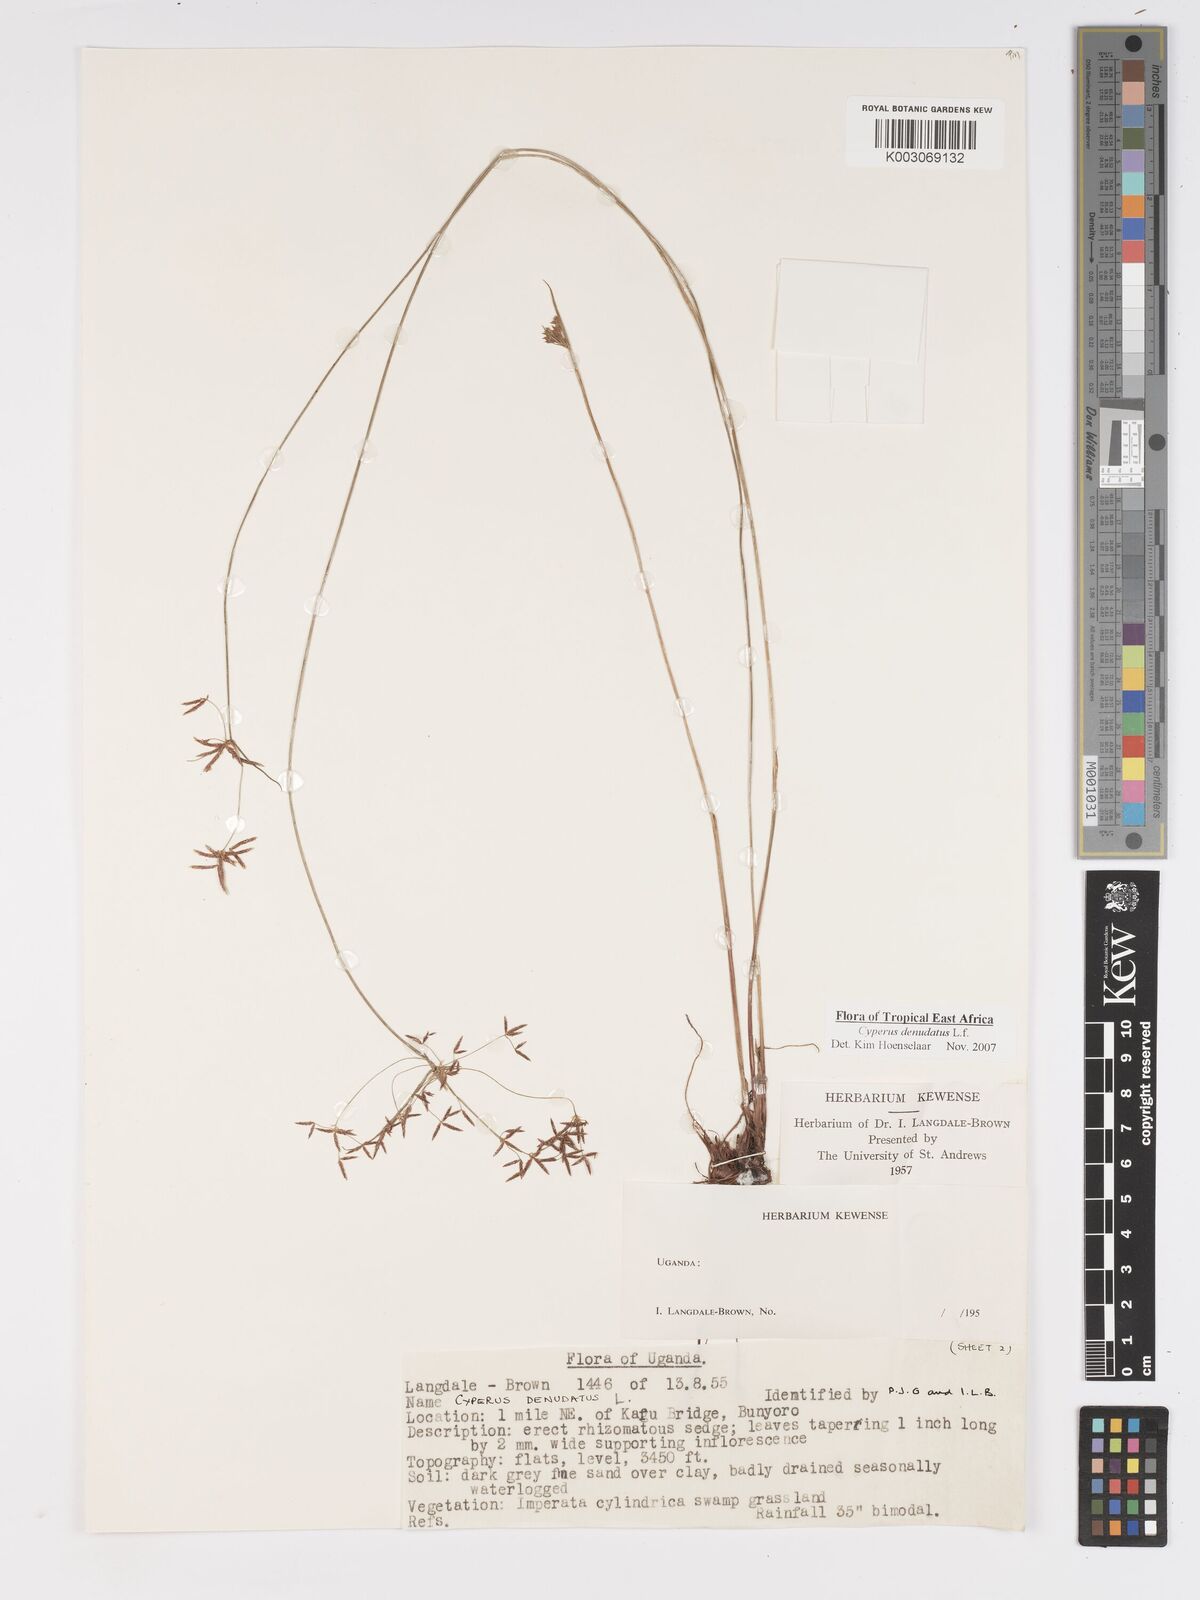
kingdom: Plantae
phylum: Tracheophyta
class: Liliopsida
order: Poales
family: Cyperaceae
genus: Cyperus
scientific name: Cyperus platycaulis
